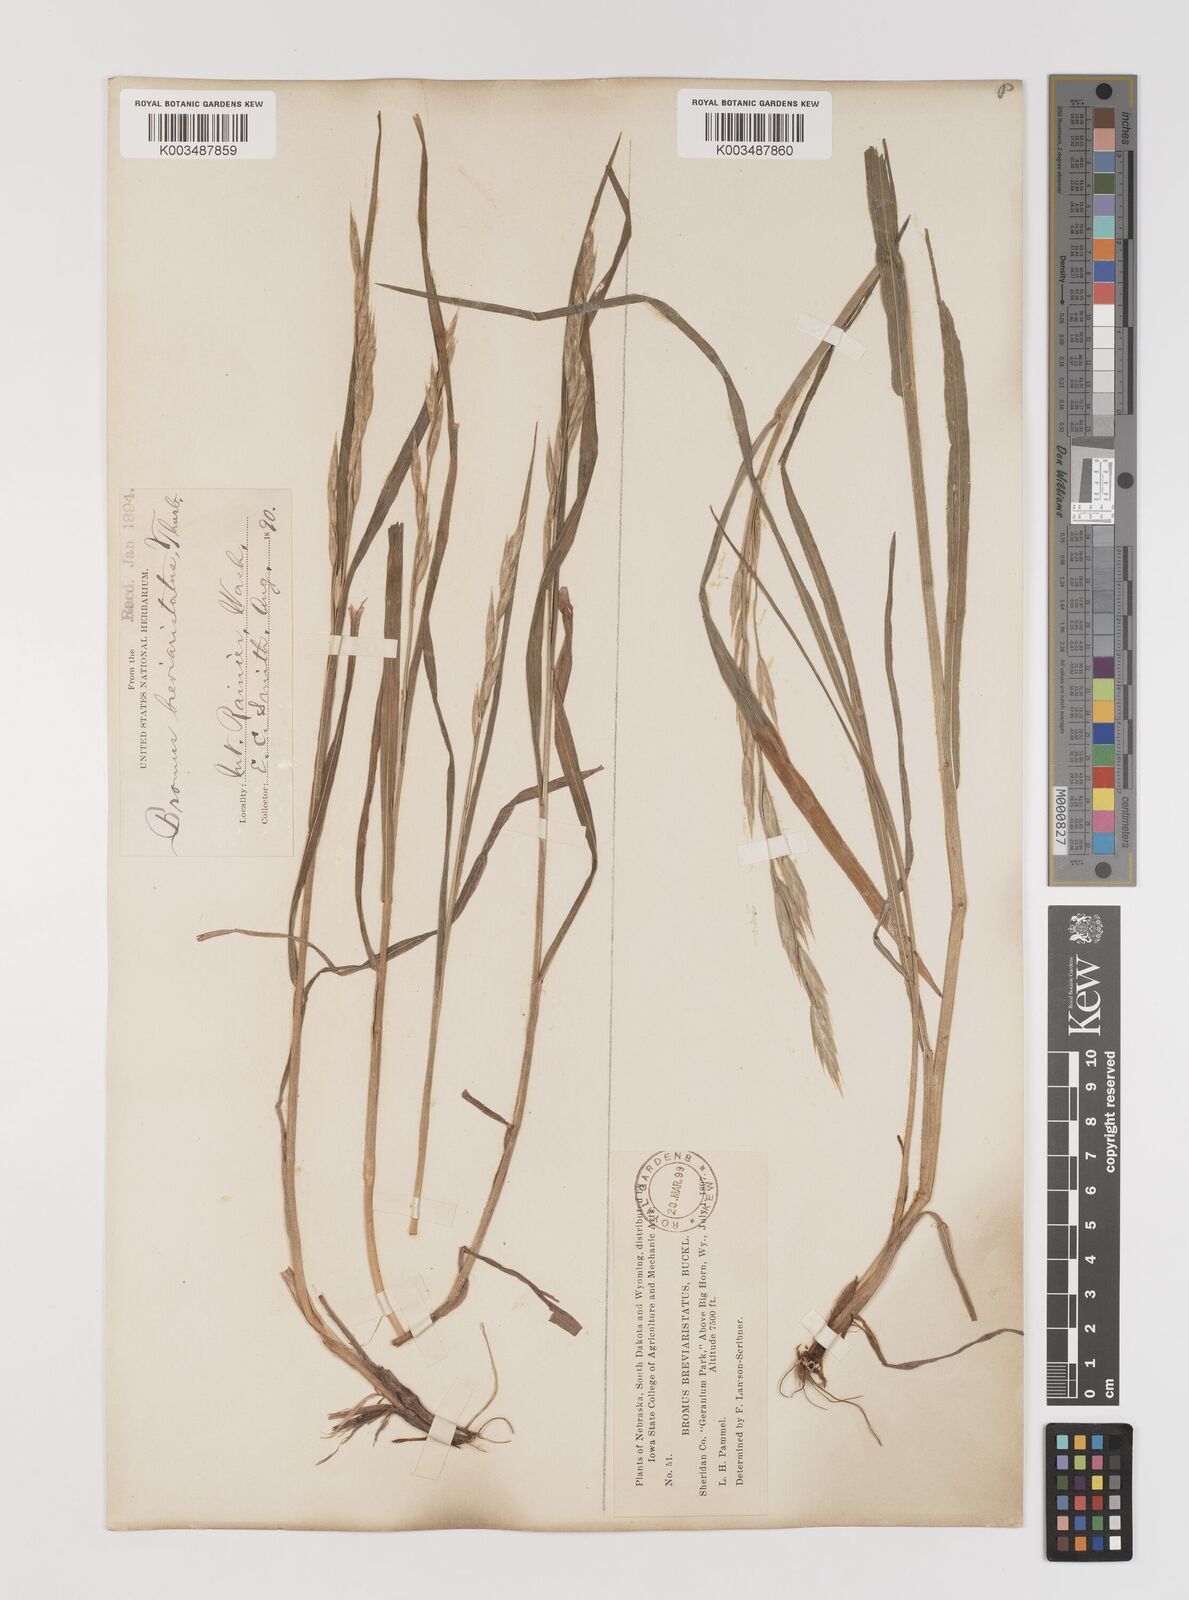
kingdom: Plantae
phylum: Tracheophyta
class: Liliopsida
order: Poales
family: Poaceae
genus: Bromus
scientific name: Bromus catharticus
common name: Rescuegrass
